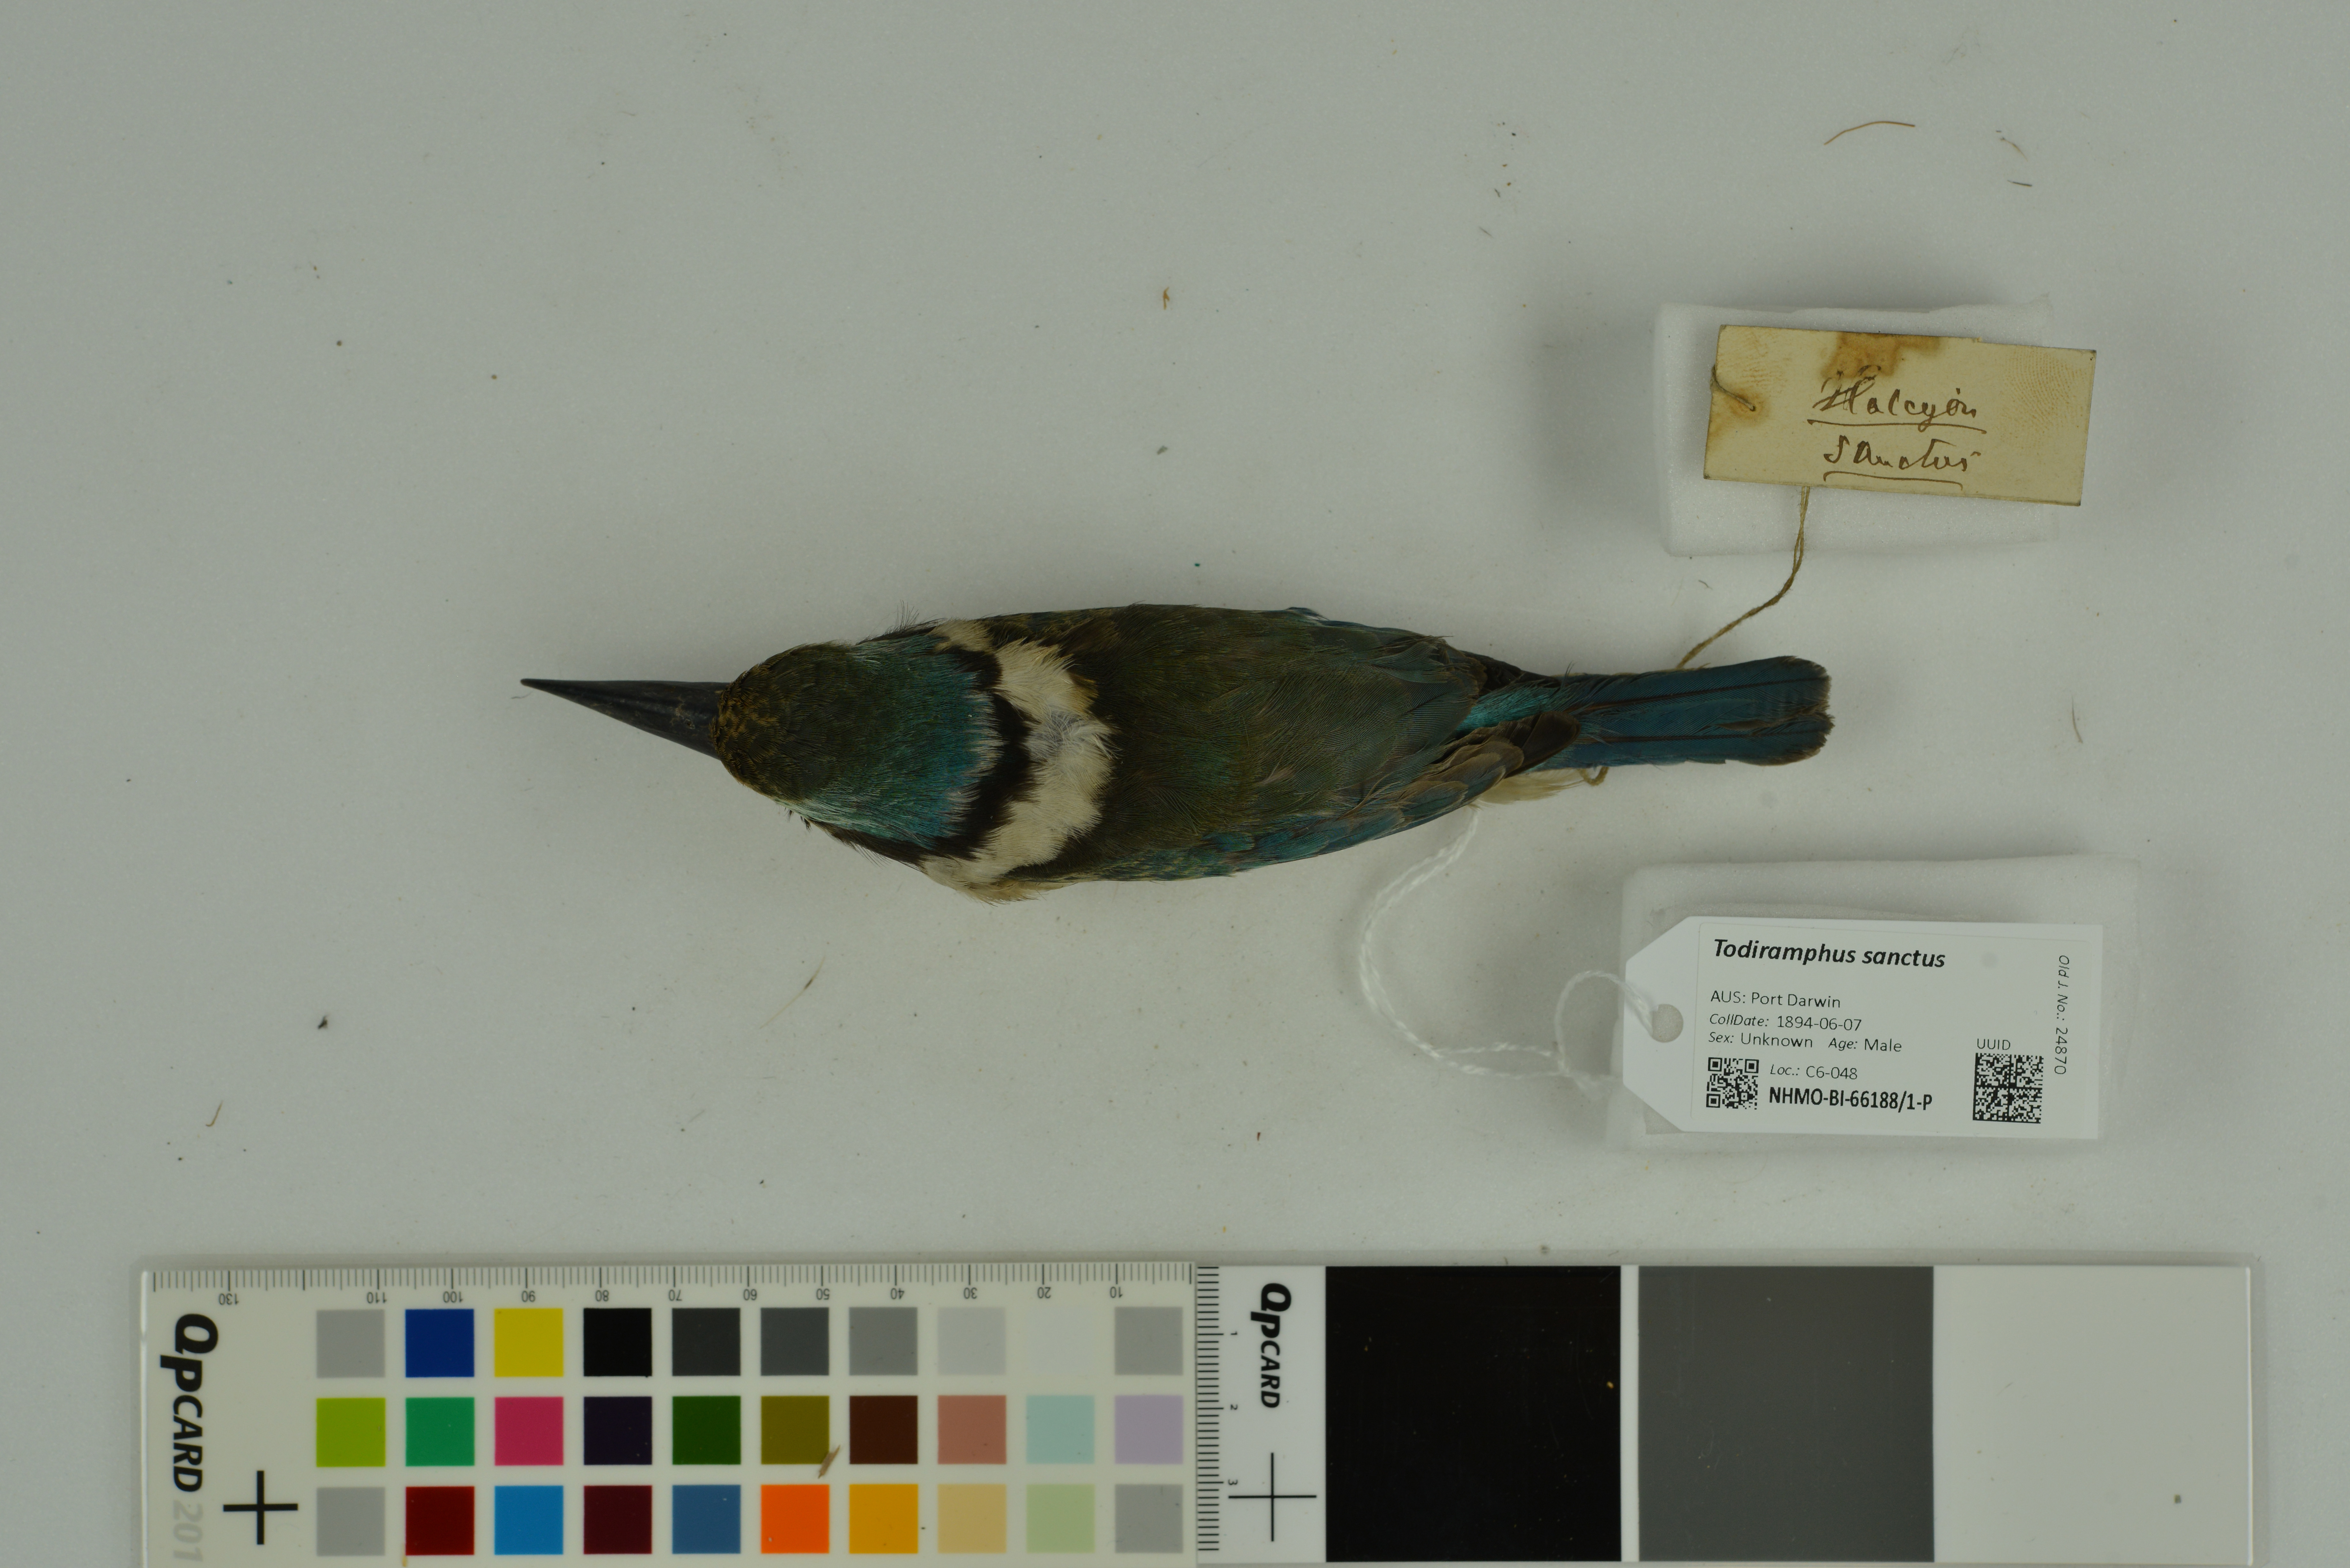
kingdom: Animalia
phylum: Chordata
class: Aves
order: Coraciiformes
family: Alcedinidae
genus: Todiramphus
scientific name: Todiramphus sanctus
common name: Sacred kingfisher
